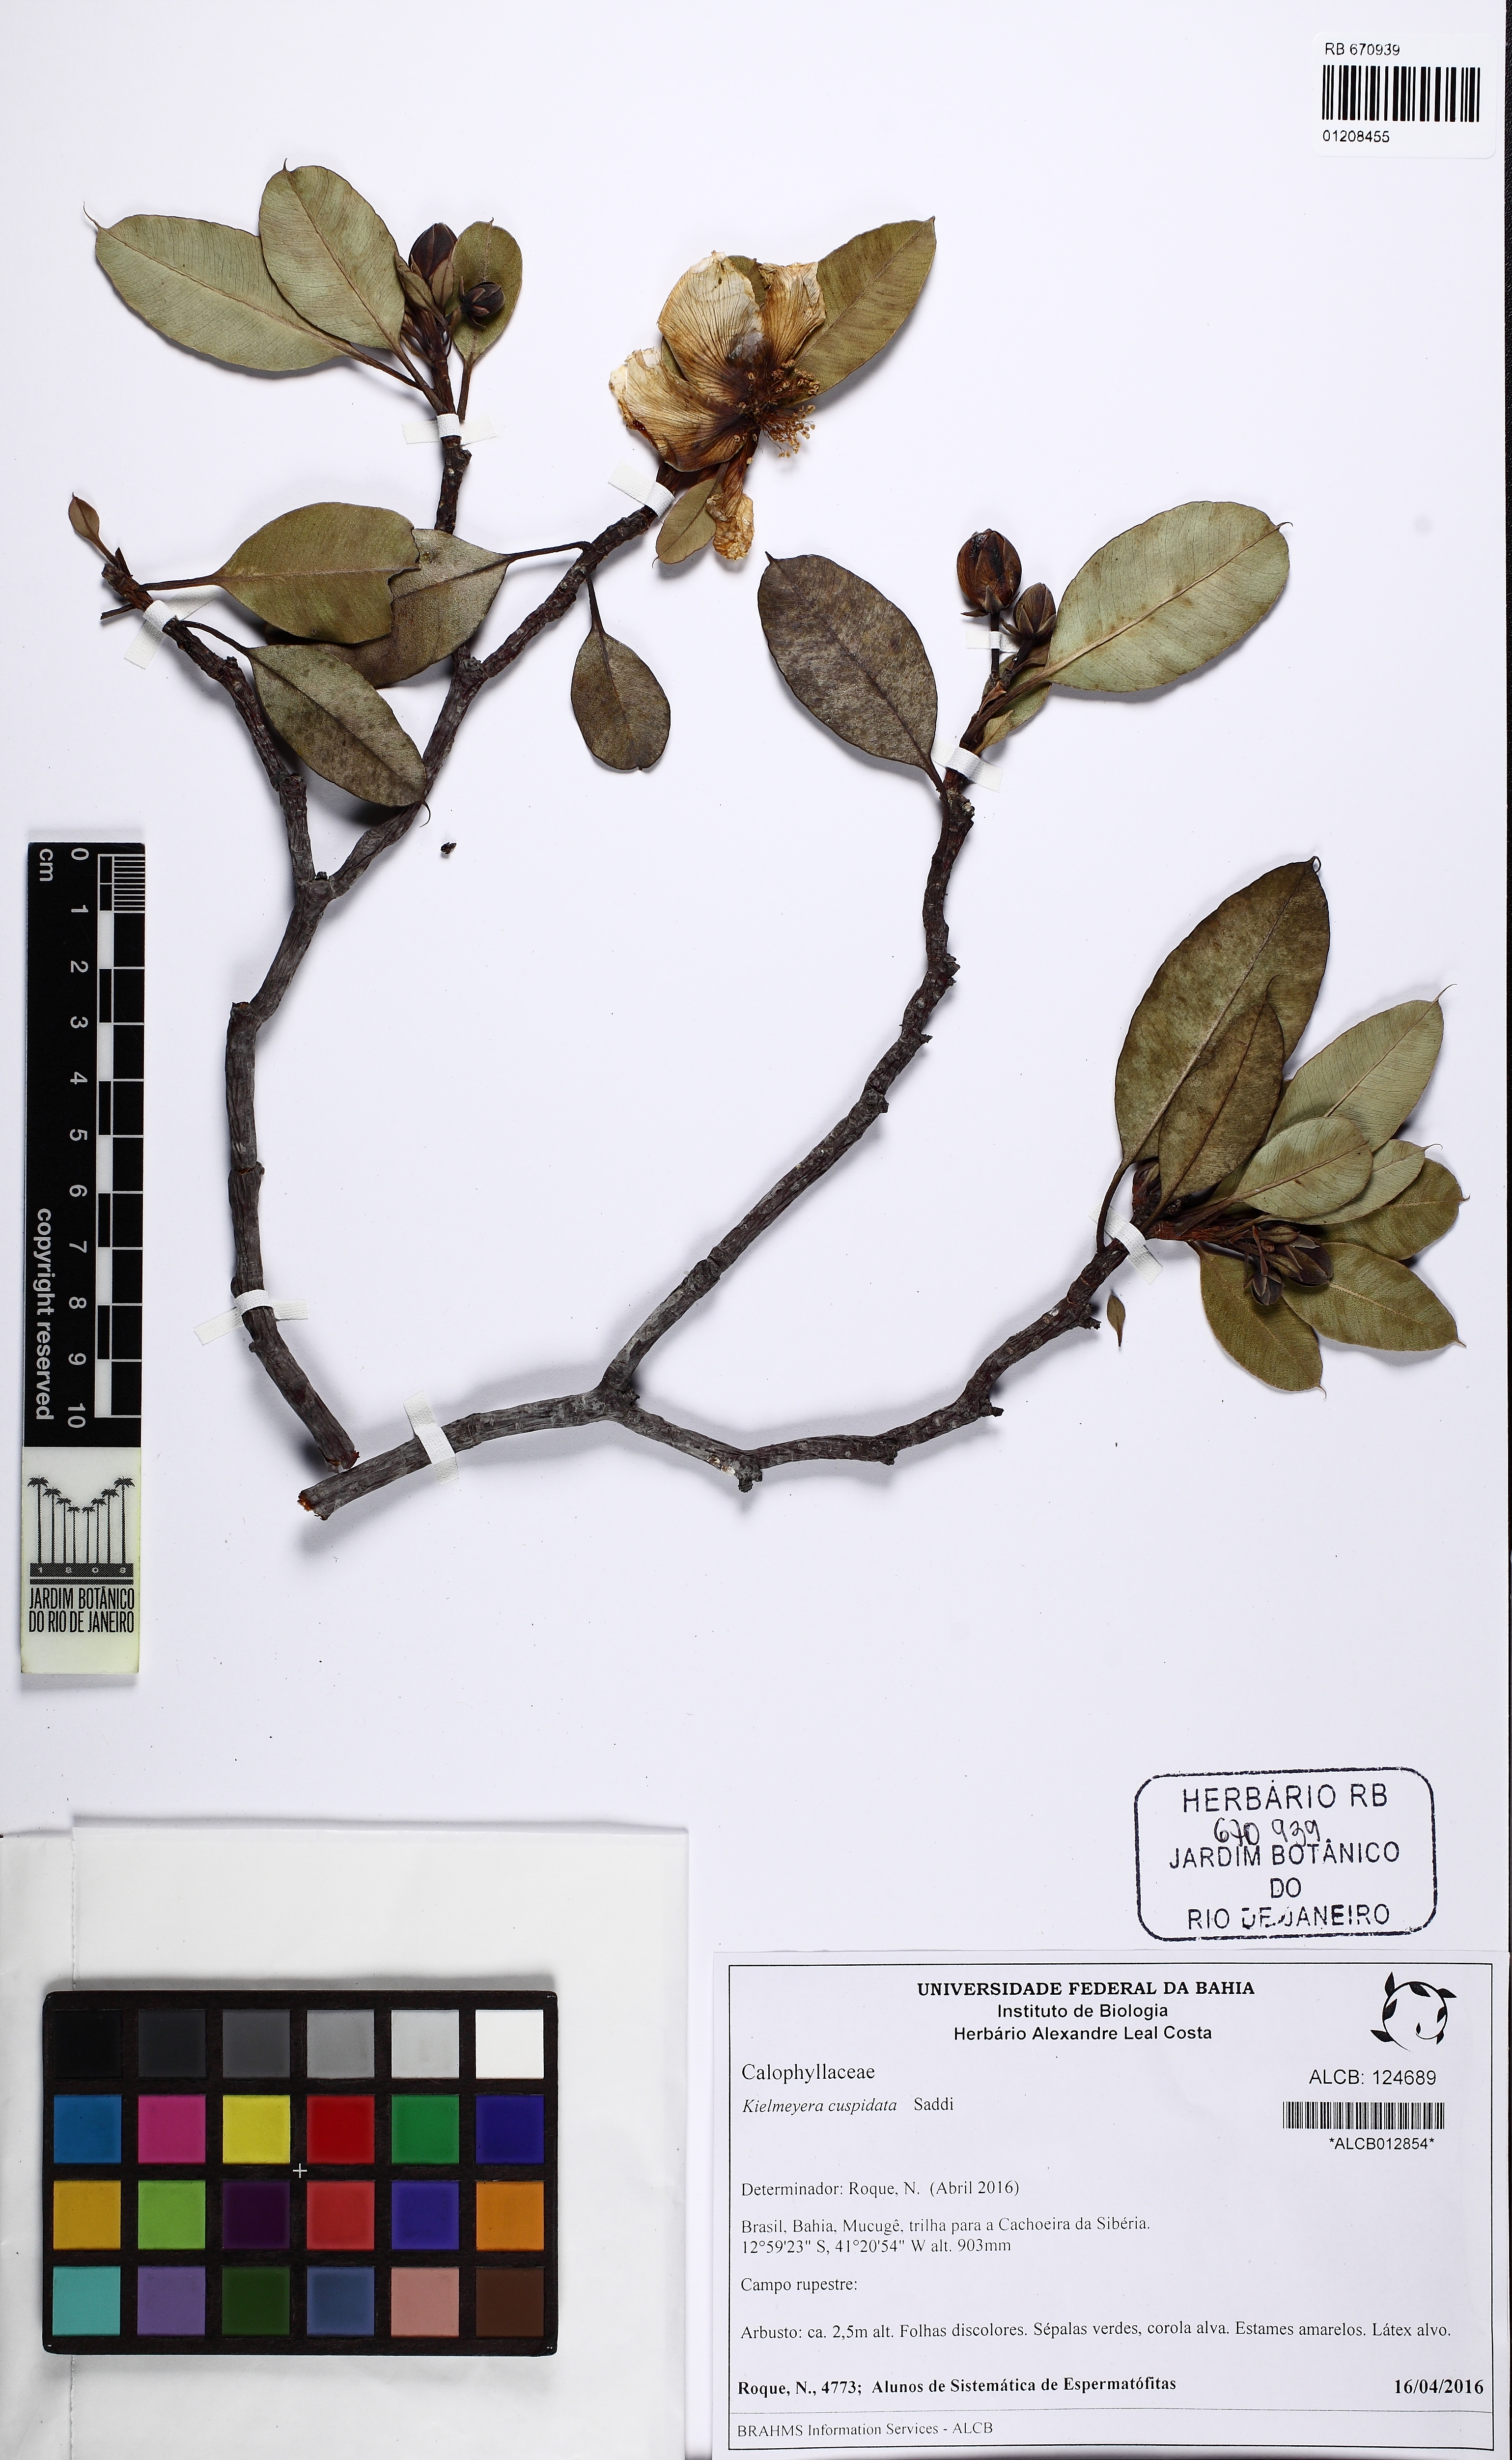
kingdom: Plantae
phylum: Tracheophyta
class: Magnoliopsida
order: Malpighiales
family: Calophyllaceae
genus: Kielmeyera
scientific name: Kielmeyera cuspidata
